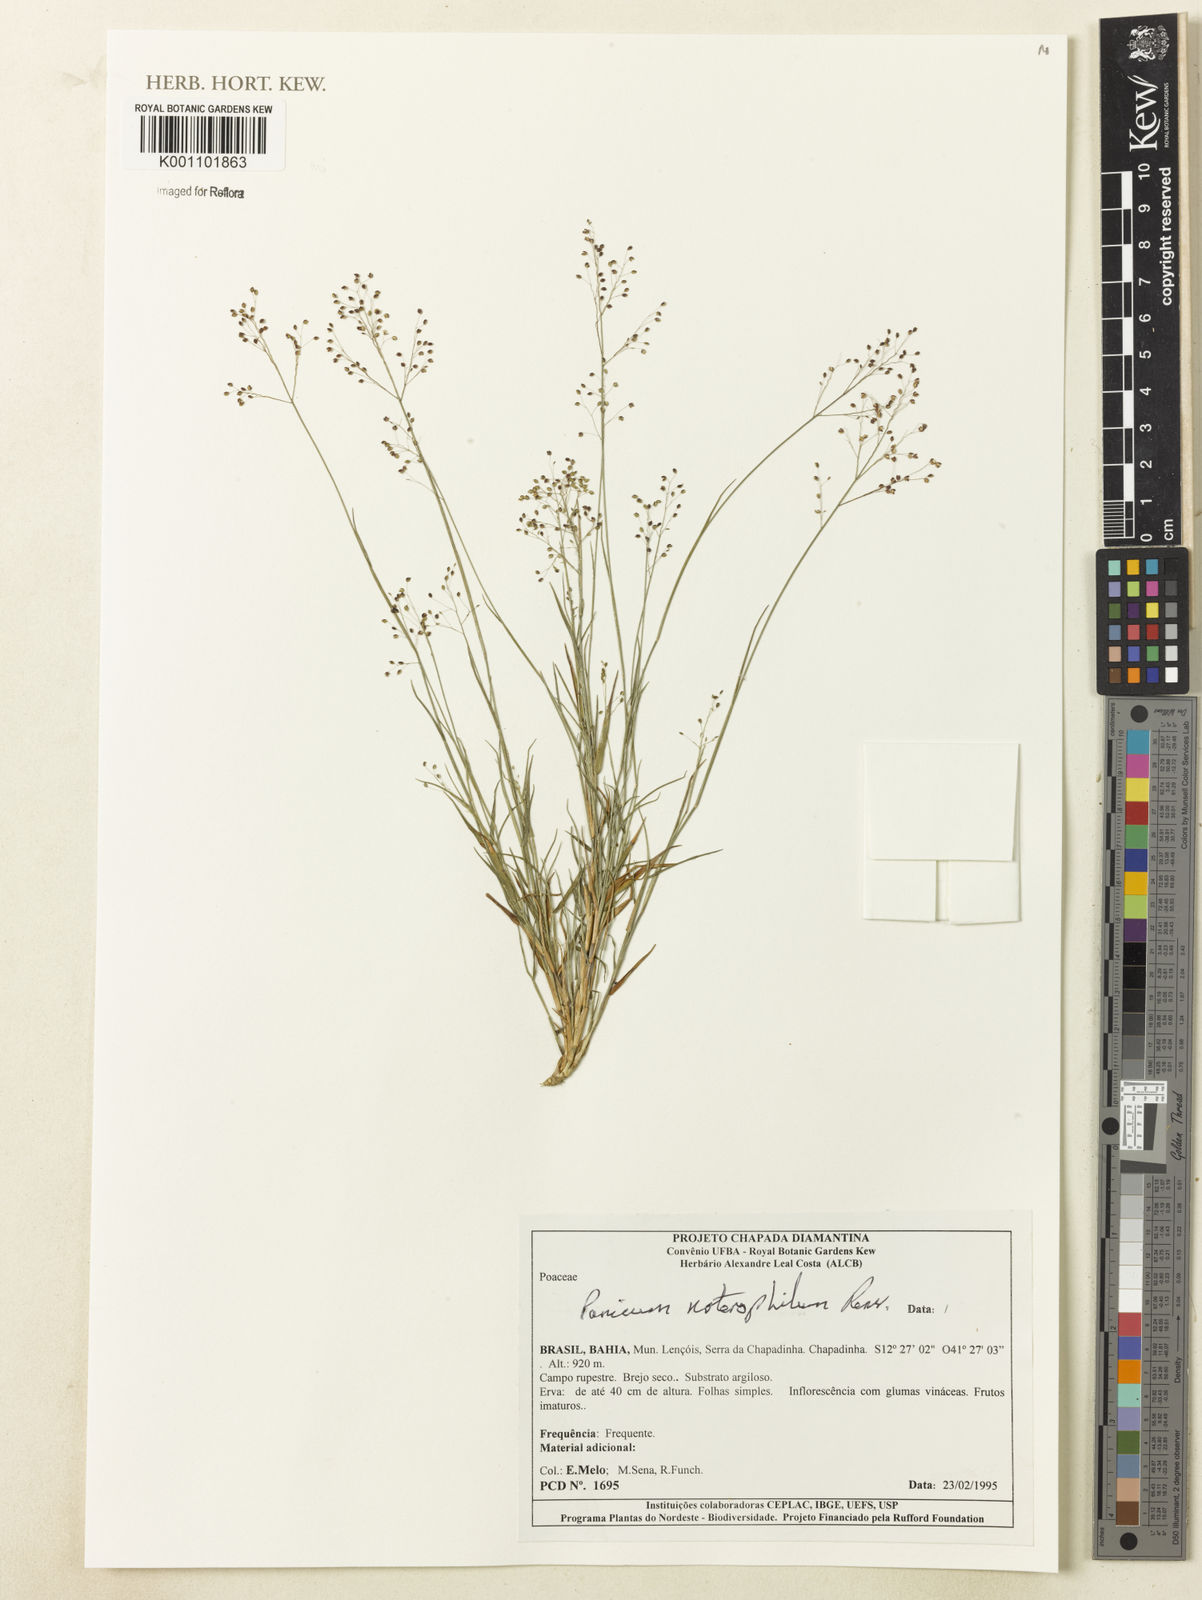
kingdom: Plantae
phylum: Tracheophyta
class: Liliopsida
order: Poales
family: Poaceae
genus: Trichanthecium
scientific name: Trichanthecium noterophilum
